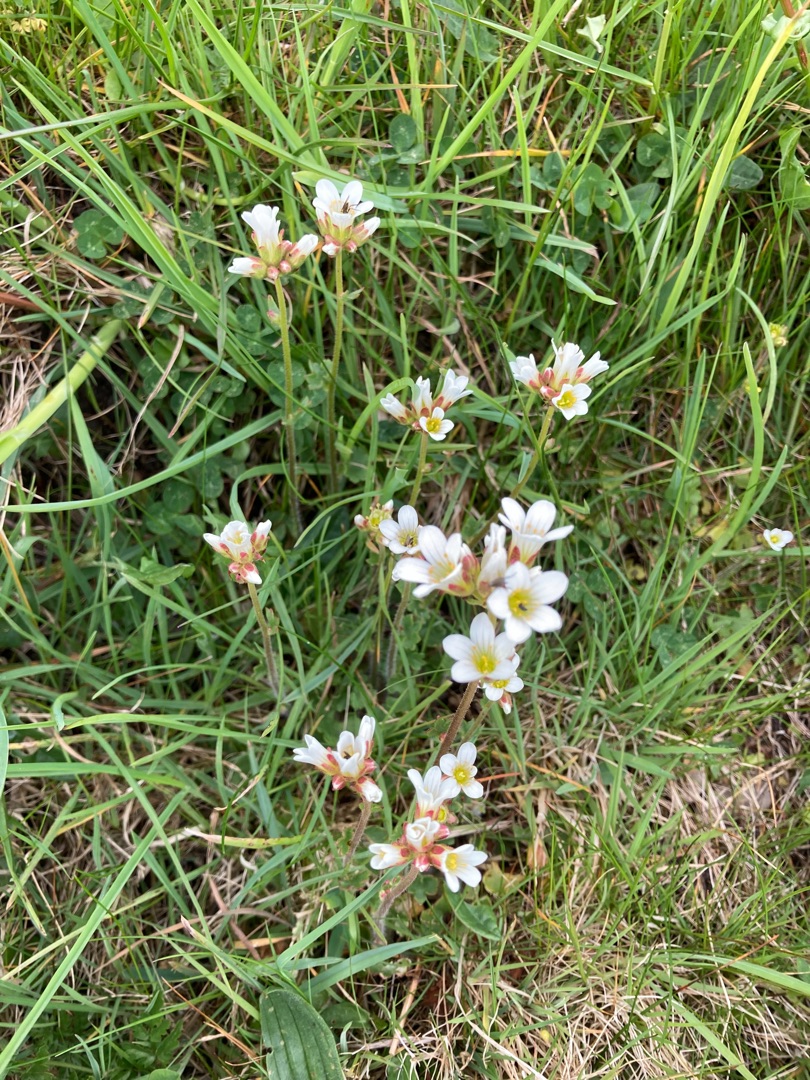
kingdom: Plantae
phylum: Tracheophyta
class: Magnoliopsida
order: Saxifragales
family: Saxifragaceae
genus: Saxifraga
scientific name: Saxifraga granulata
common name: Kornet stenbræk
